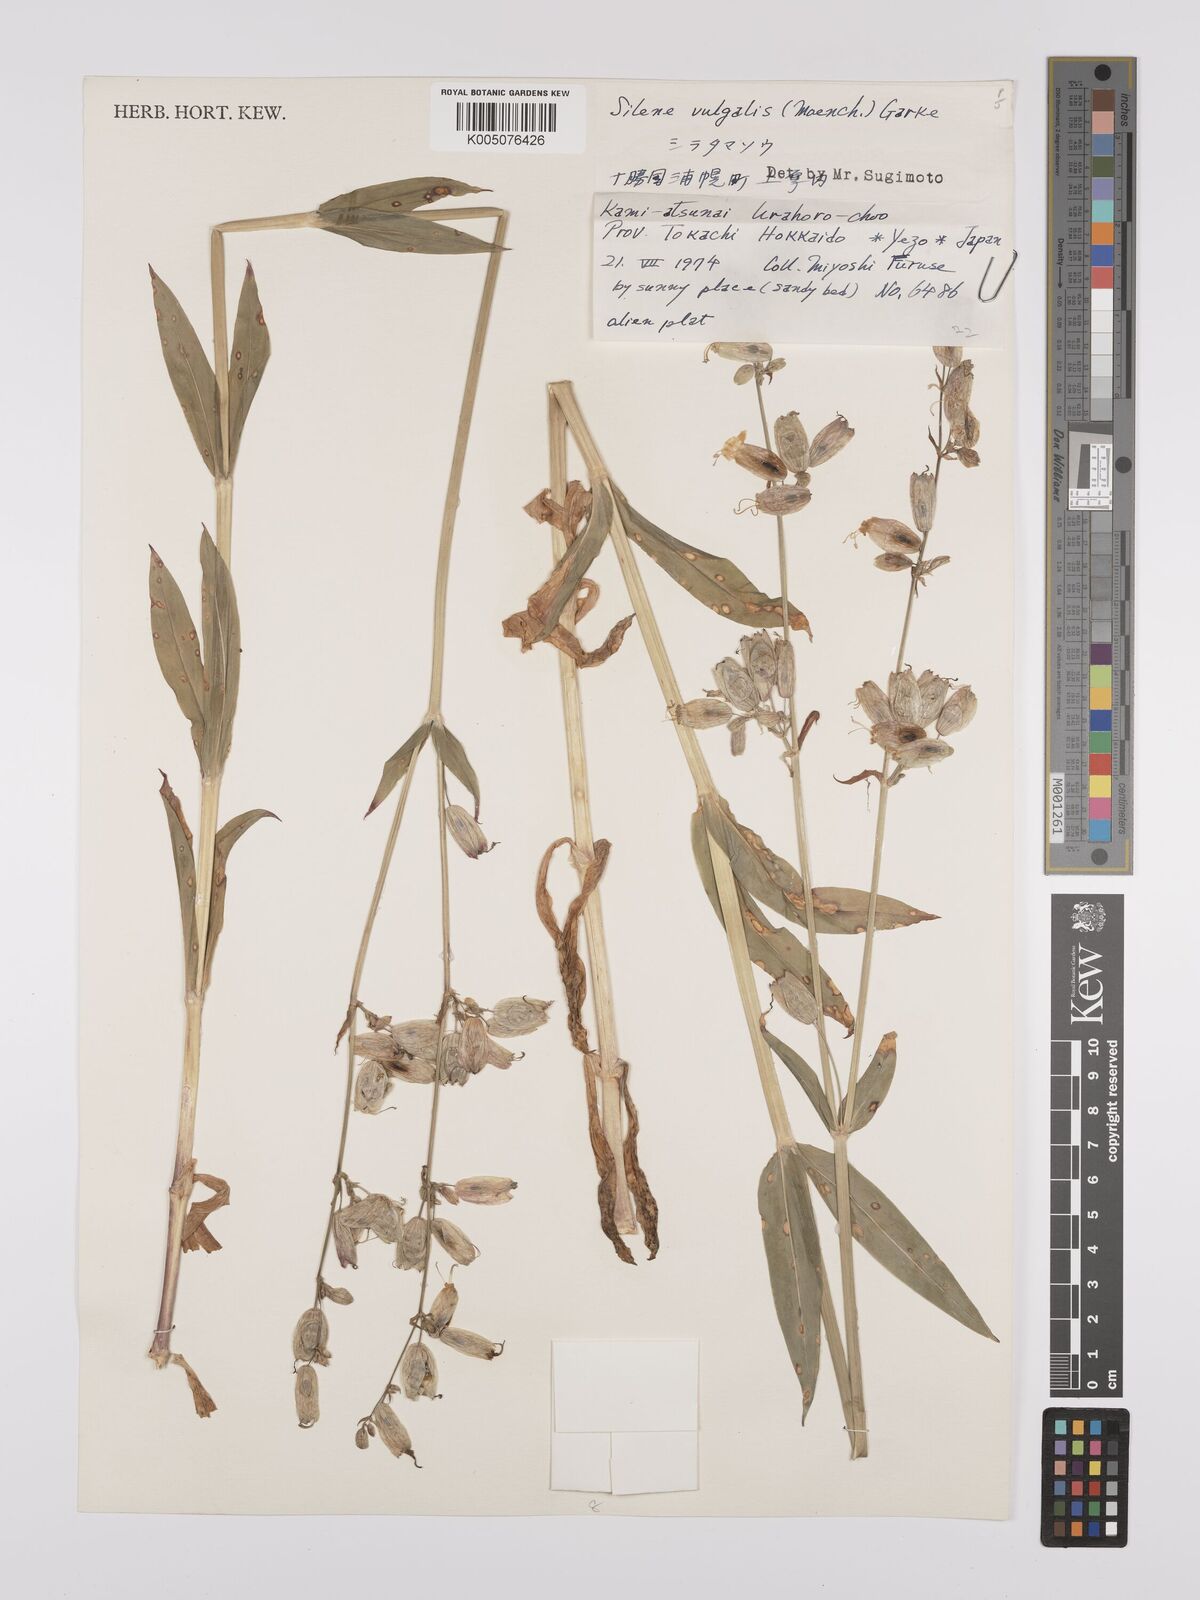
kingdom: Plantae
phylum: Tracheophyta
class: Magnoliopsida
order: Caryophyllales
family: Caryophyllaceae
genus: Silene
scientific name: Silene vulgaris
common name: Bladder campion
